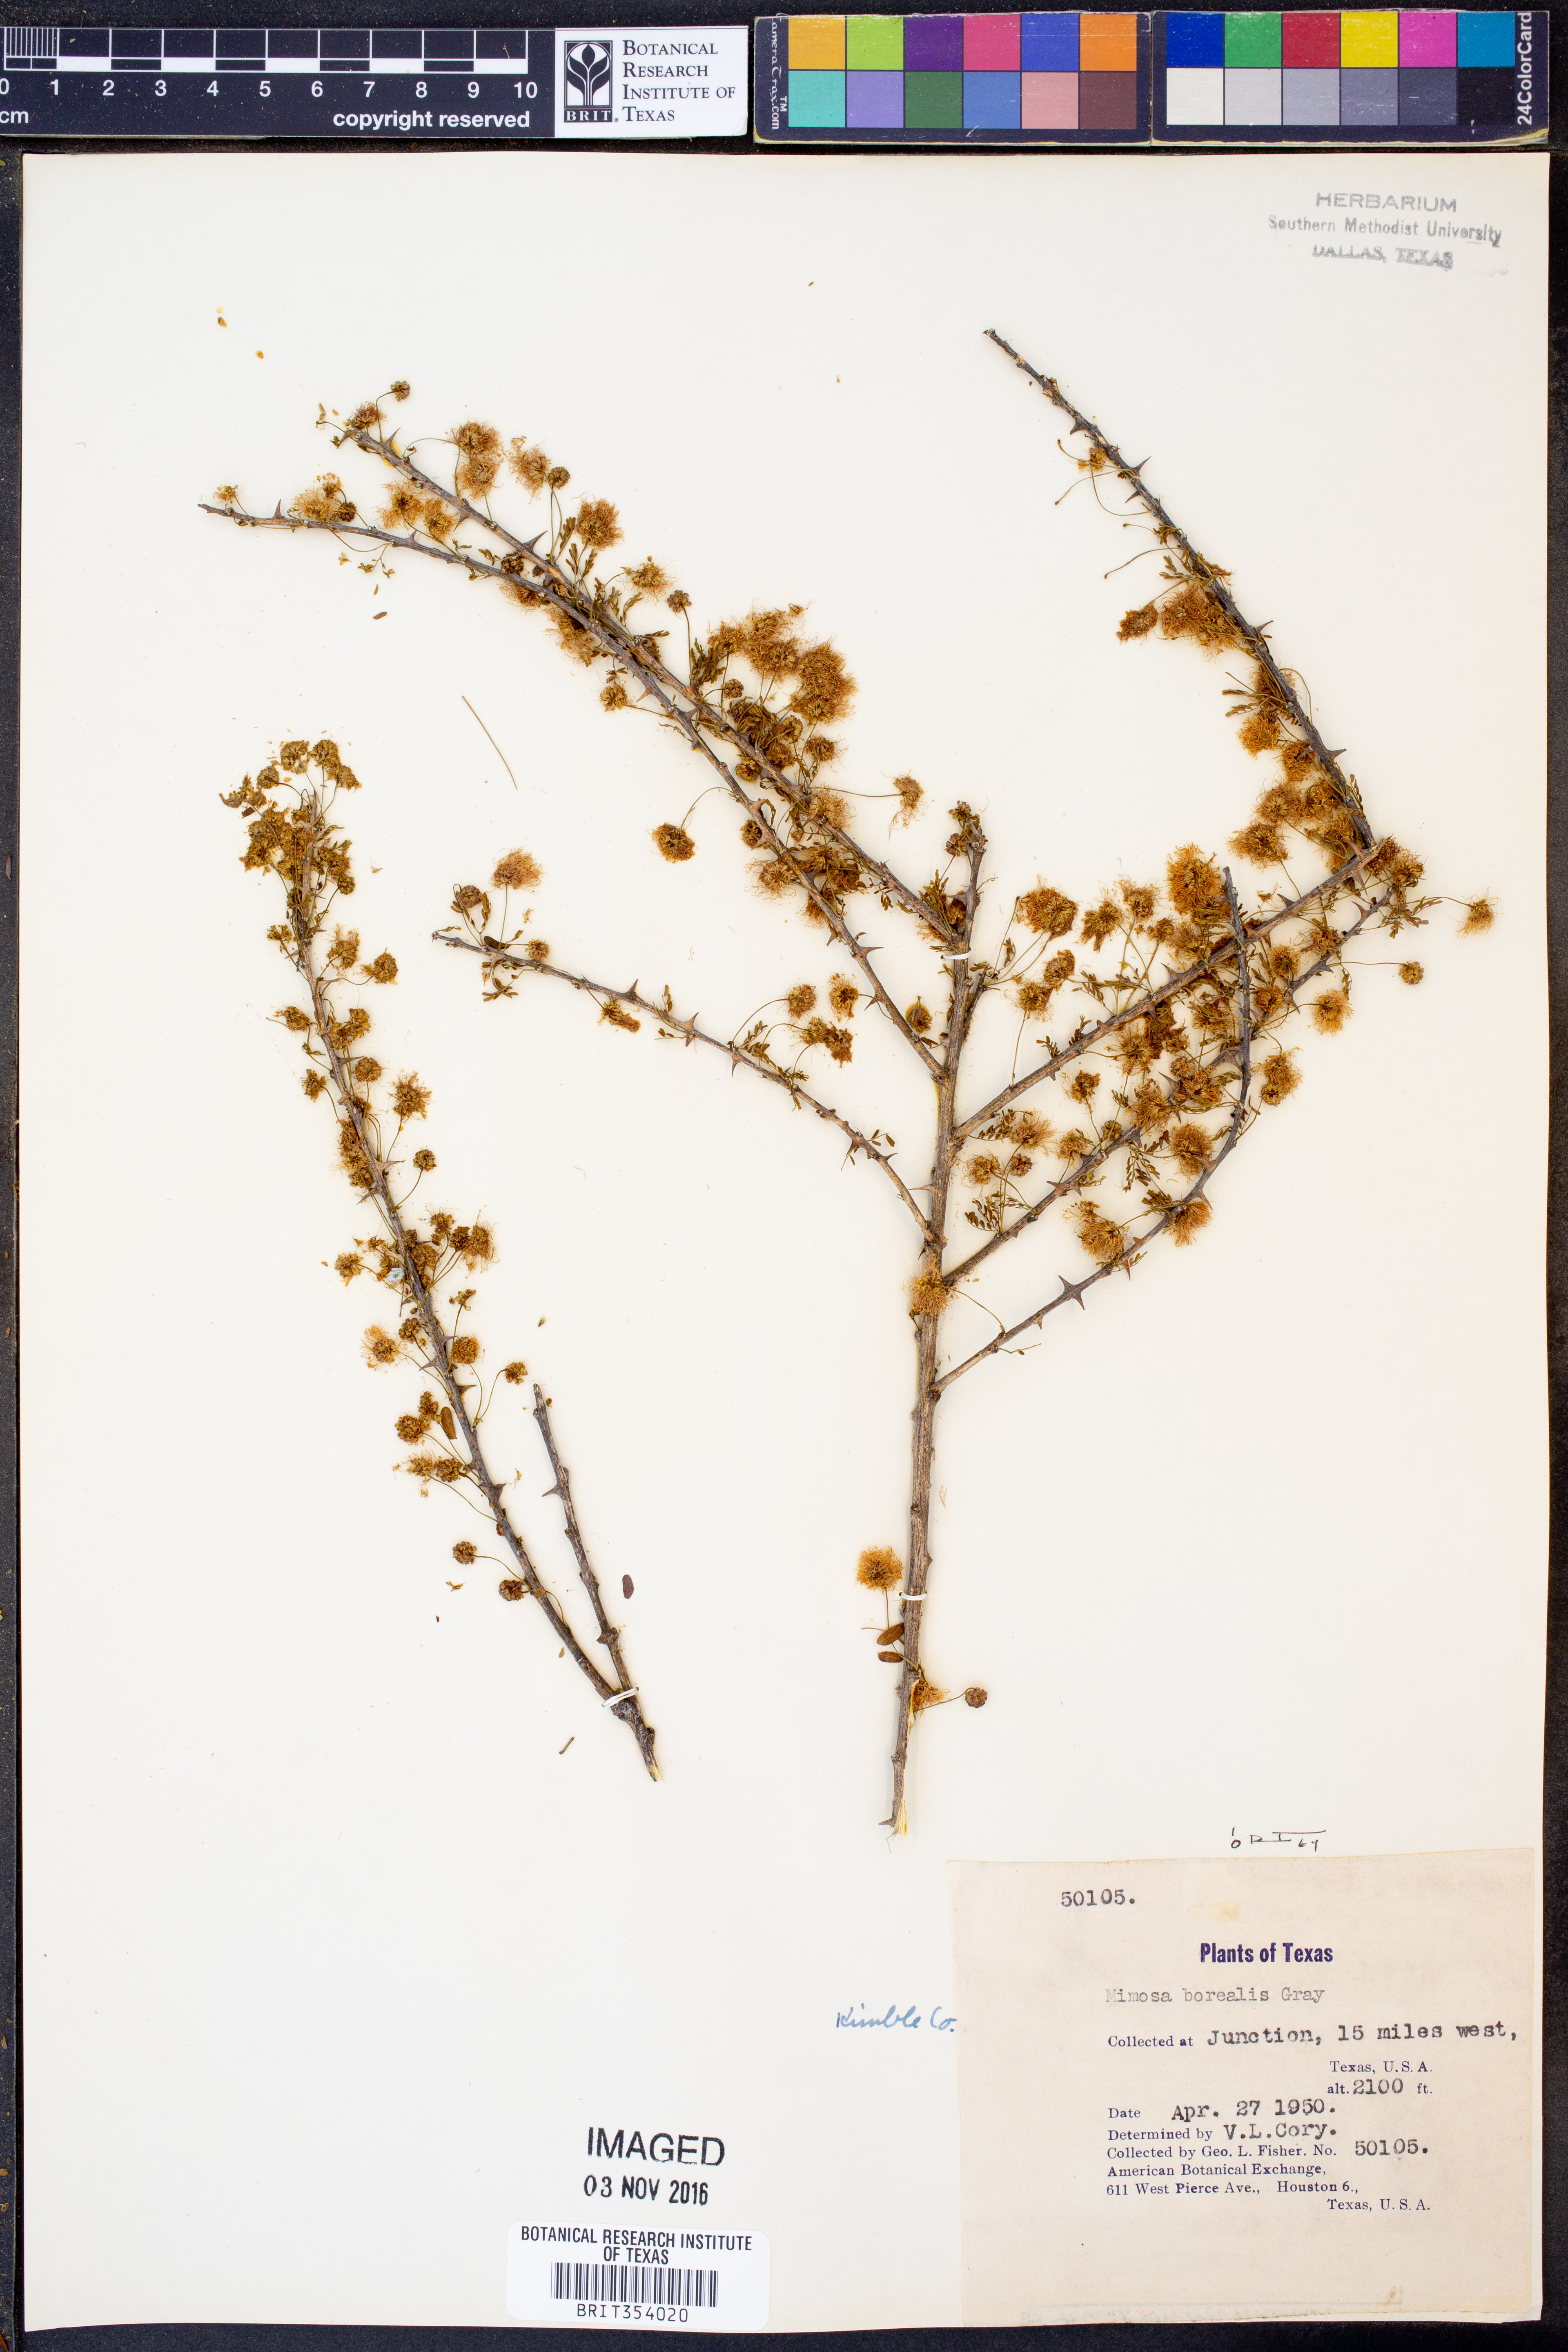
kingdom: Plantae
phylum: Tracheophyta
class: Magnoliopsida
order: Fabales
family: Fabaceae
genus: Mimosa
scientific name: Mimosa borealis
